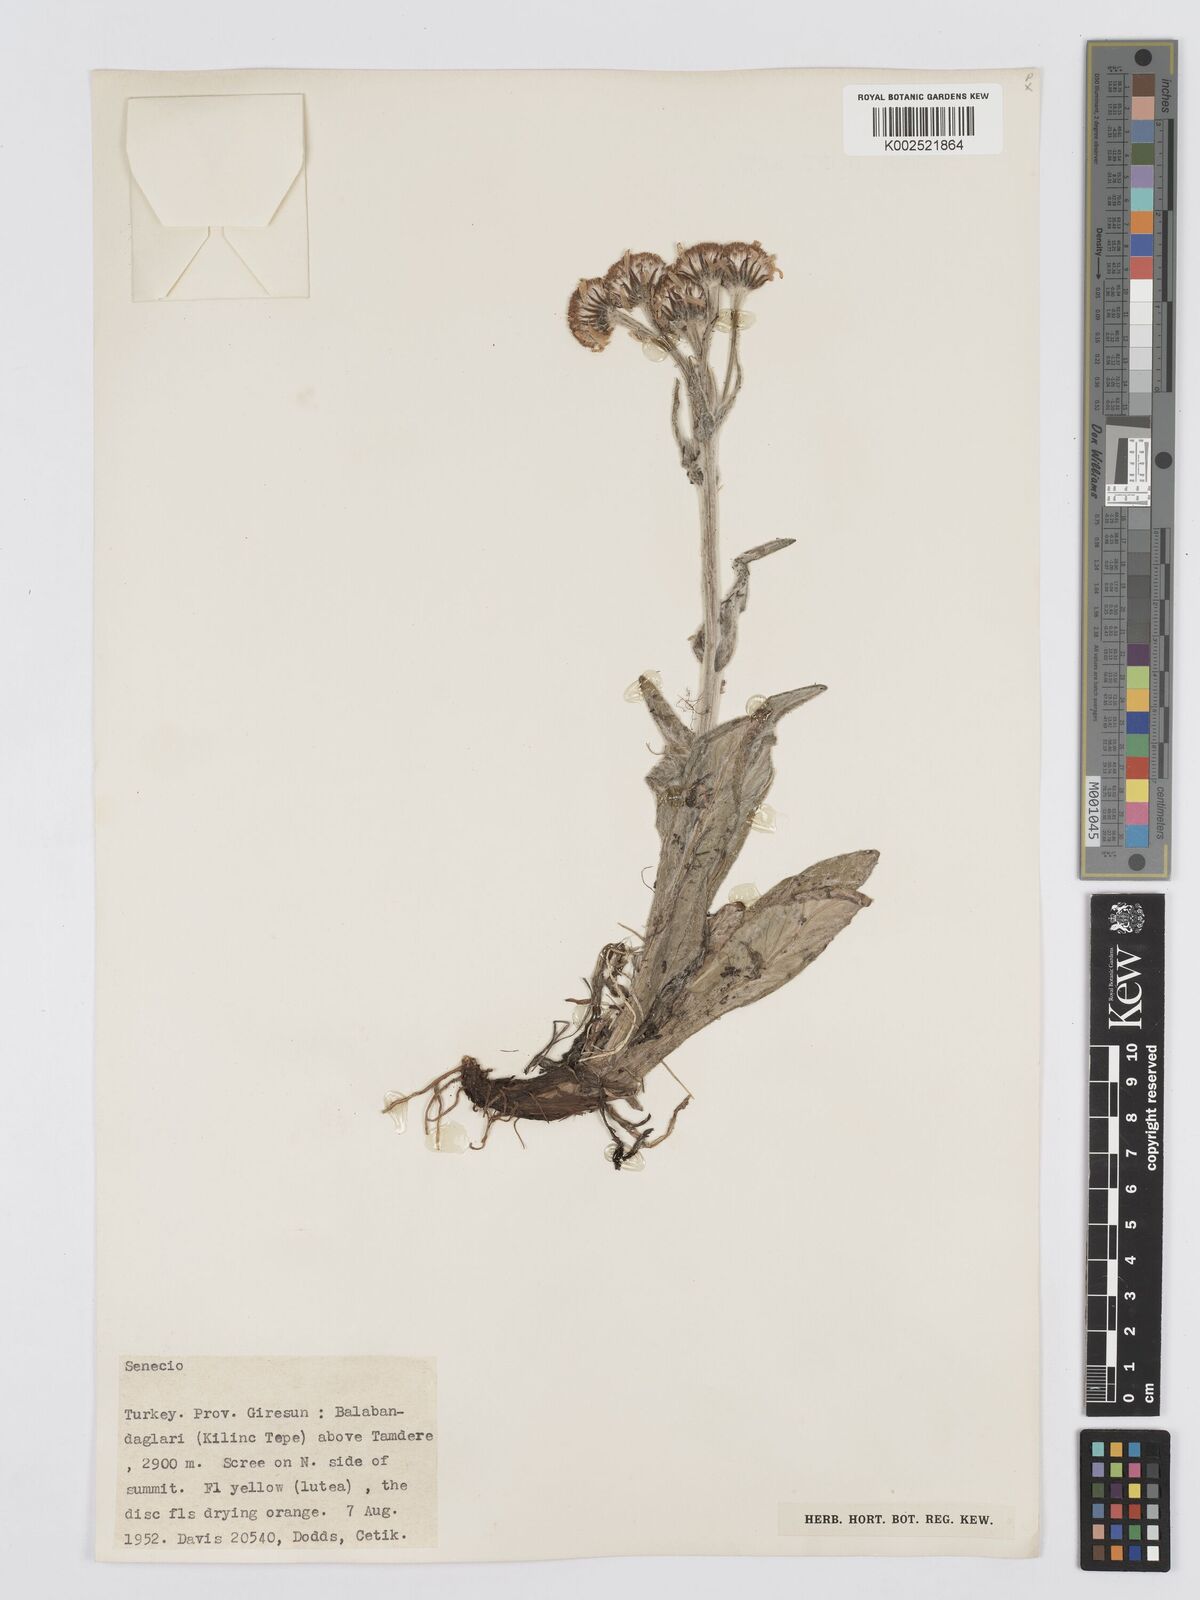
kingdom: Plantae
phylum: Tracheophyta
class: Magnoliopsida
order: Asterales
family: Asteraceae
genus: Tephroseris
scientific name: Tephroseris integrifolia
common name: Field fleawort
